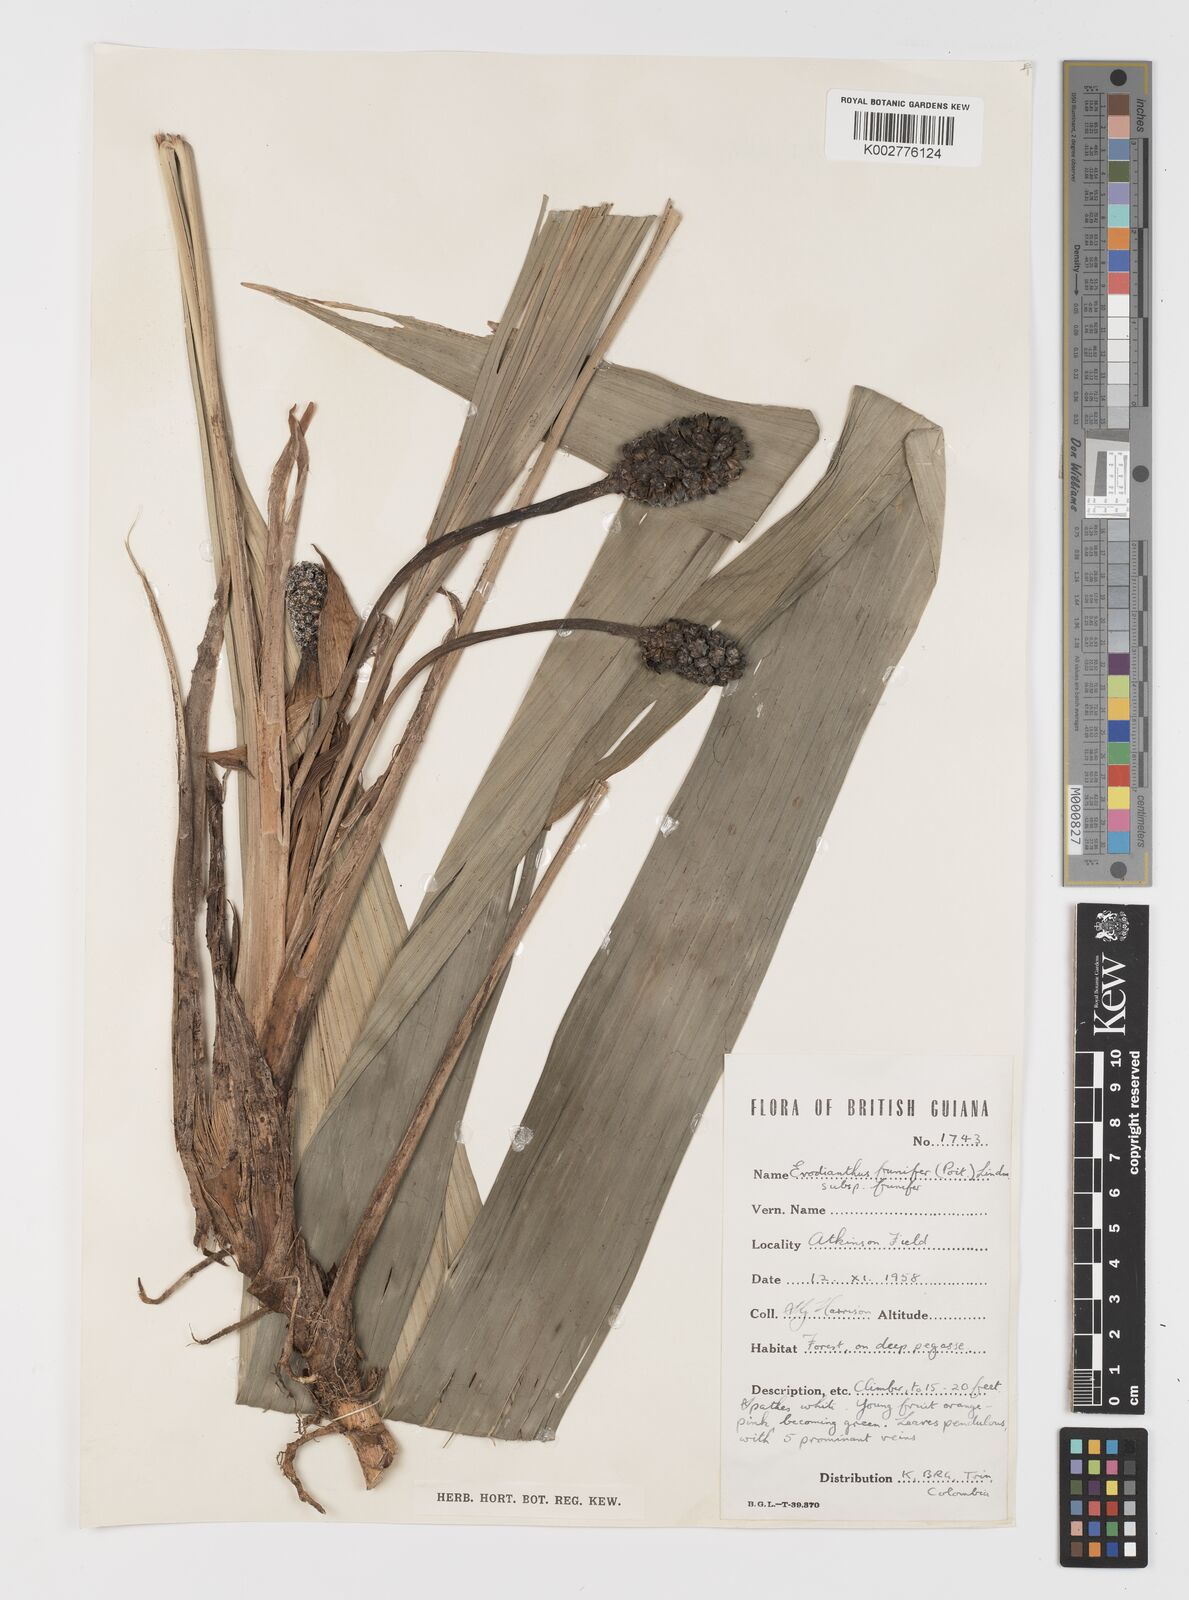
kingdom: Plantae
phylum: Tracheophyta
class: Liliopsida
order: Pandanales
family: Cyclanthaceae
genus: Evodianthus
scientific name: Evodianthus funifer
